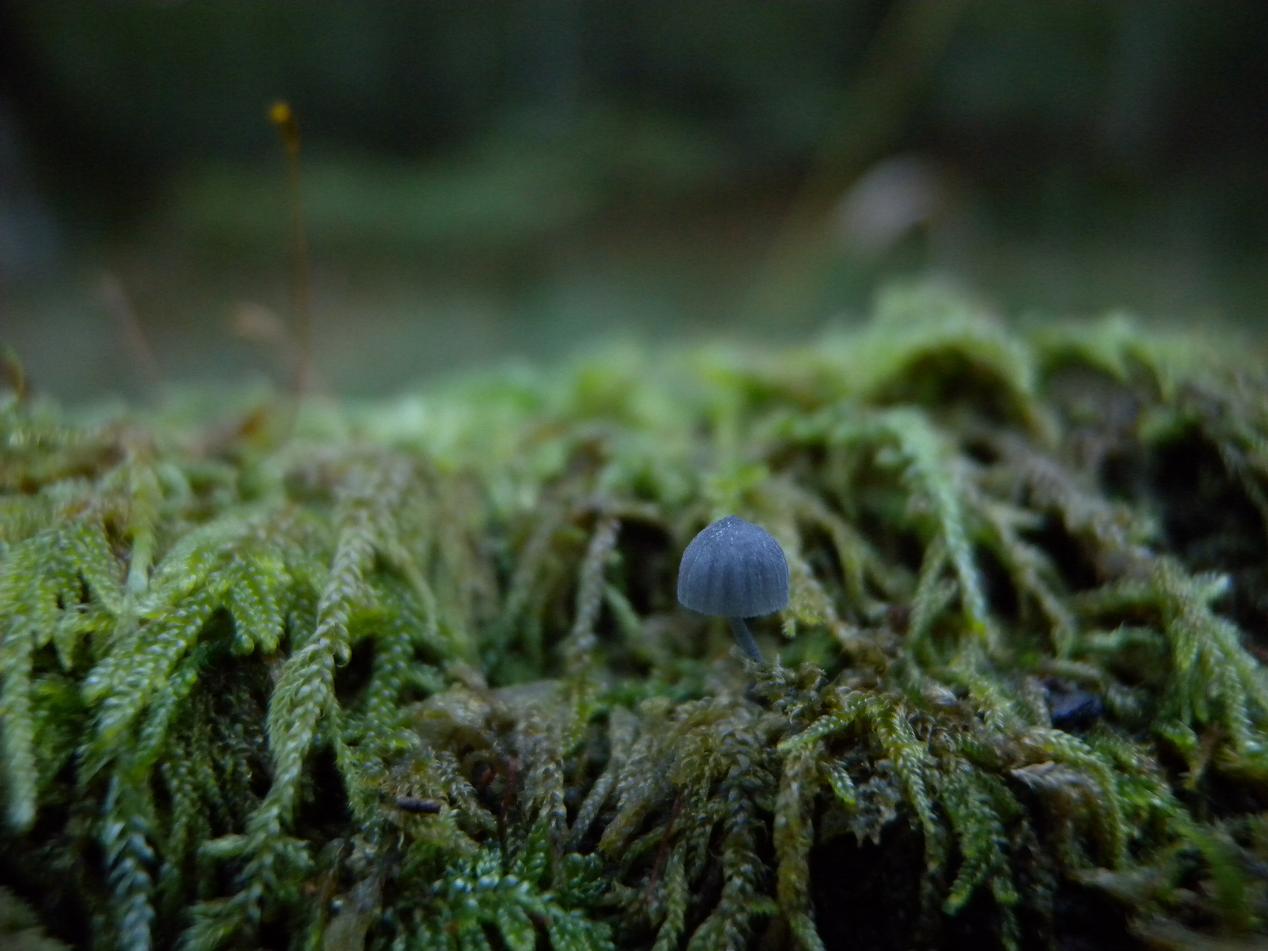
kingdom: Fungi
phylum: Basidiomycota
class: Agaricomycetes
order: Agaricales
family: Mycenaceae
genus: Mycena
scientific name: Mycena pseudocorticola
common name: gråblå bark-huesvamp
